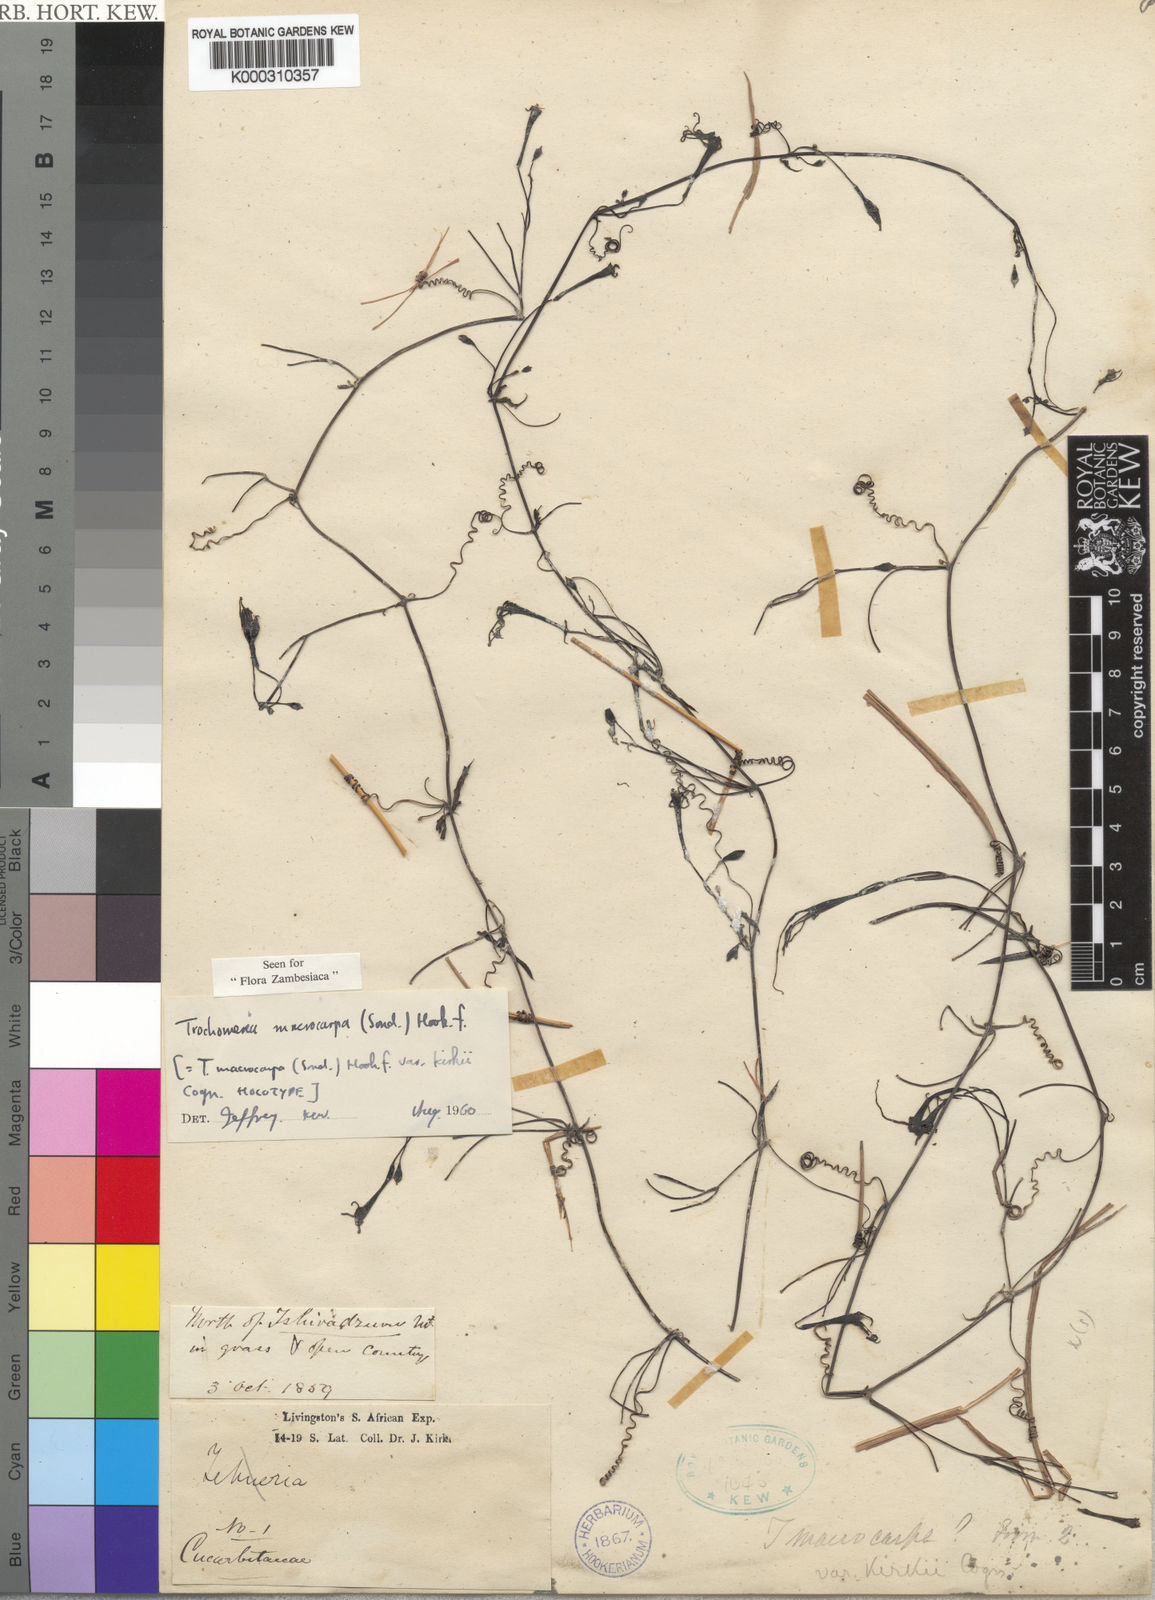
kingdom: Plantae
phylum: Tracheophyta
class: Magnoliopsida
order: Cucurbitales
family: Cucurbitaceae
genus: Trochomeria
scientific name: Trochomeria
